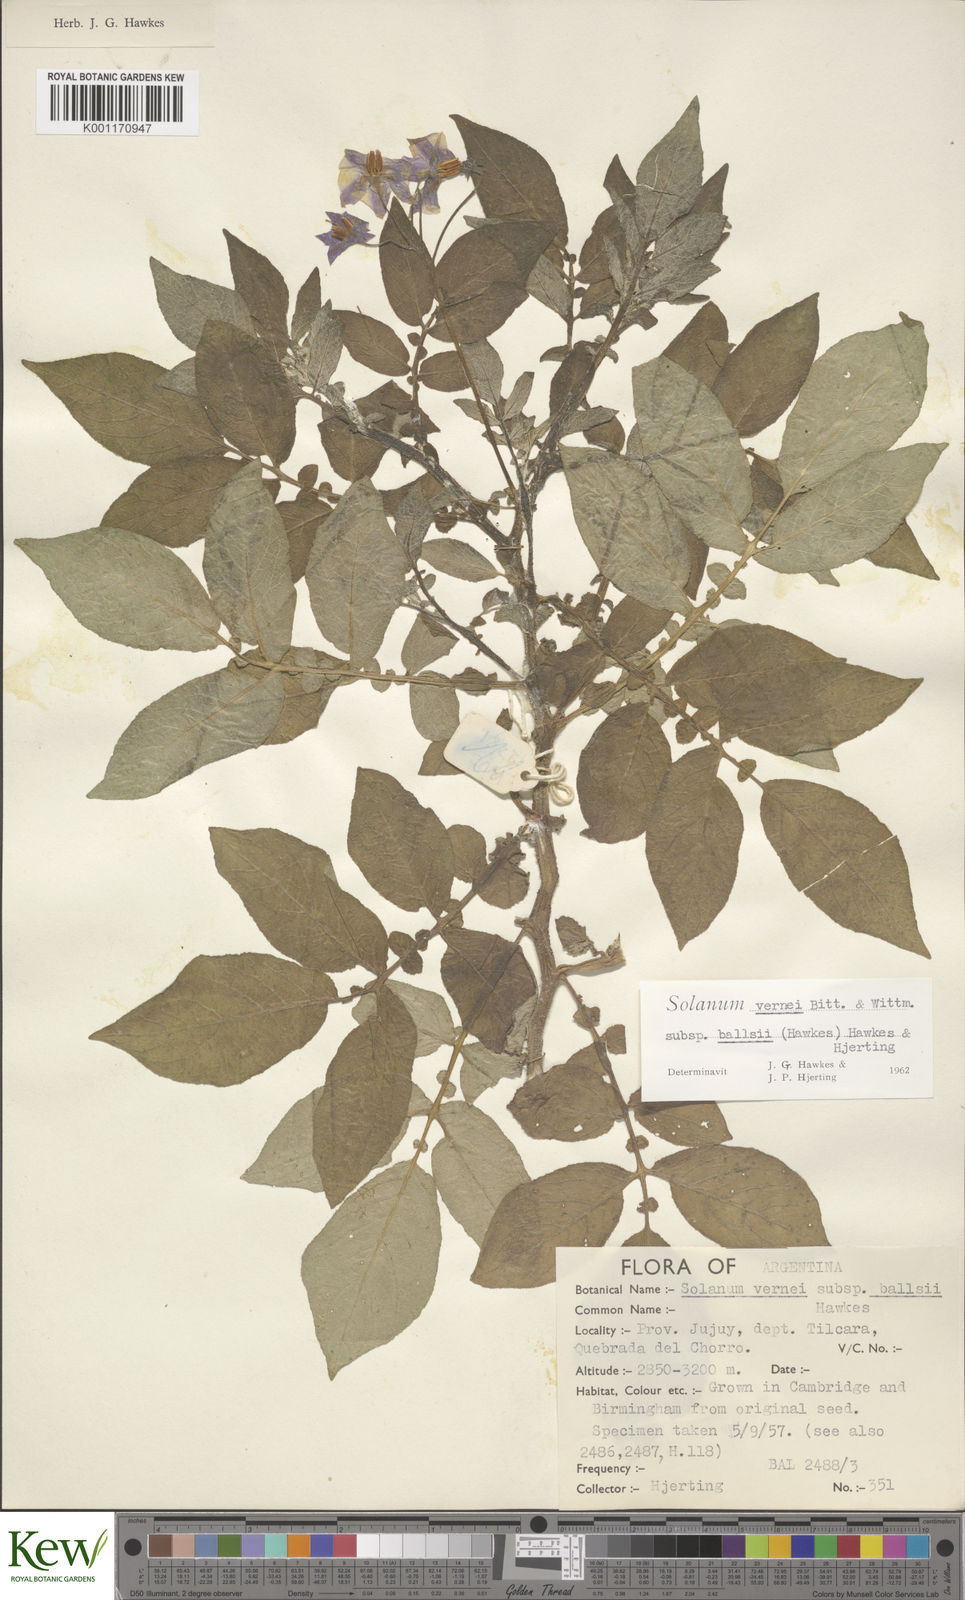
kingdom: Plantae
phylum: Tracheophyta
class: Magnoliopsida
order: Solanales
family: Solanaceae
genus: Solanum
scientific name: Solanum vernei
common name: Purple potato
